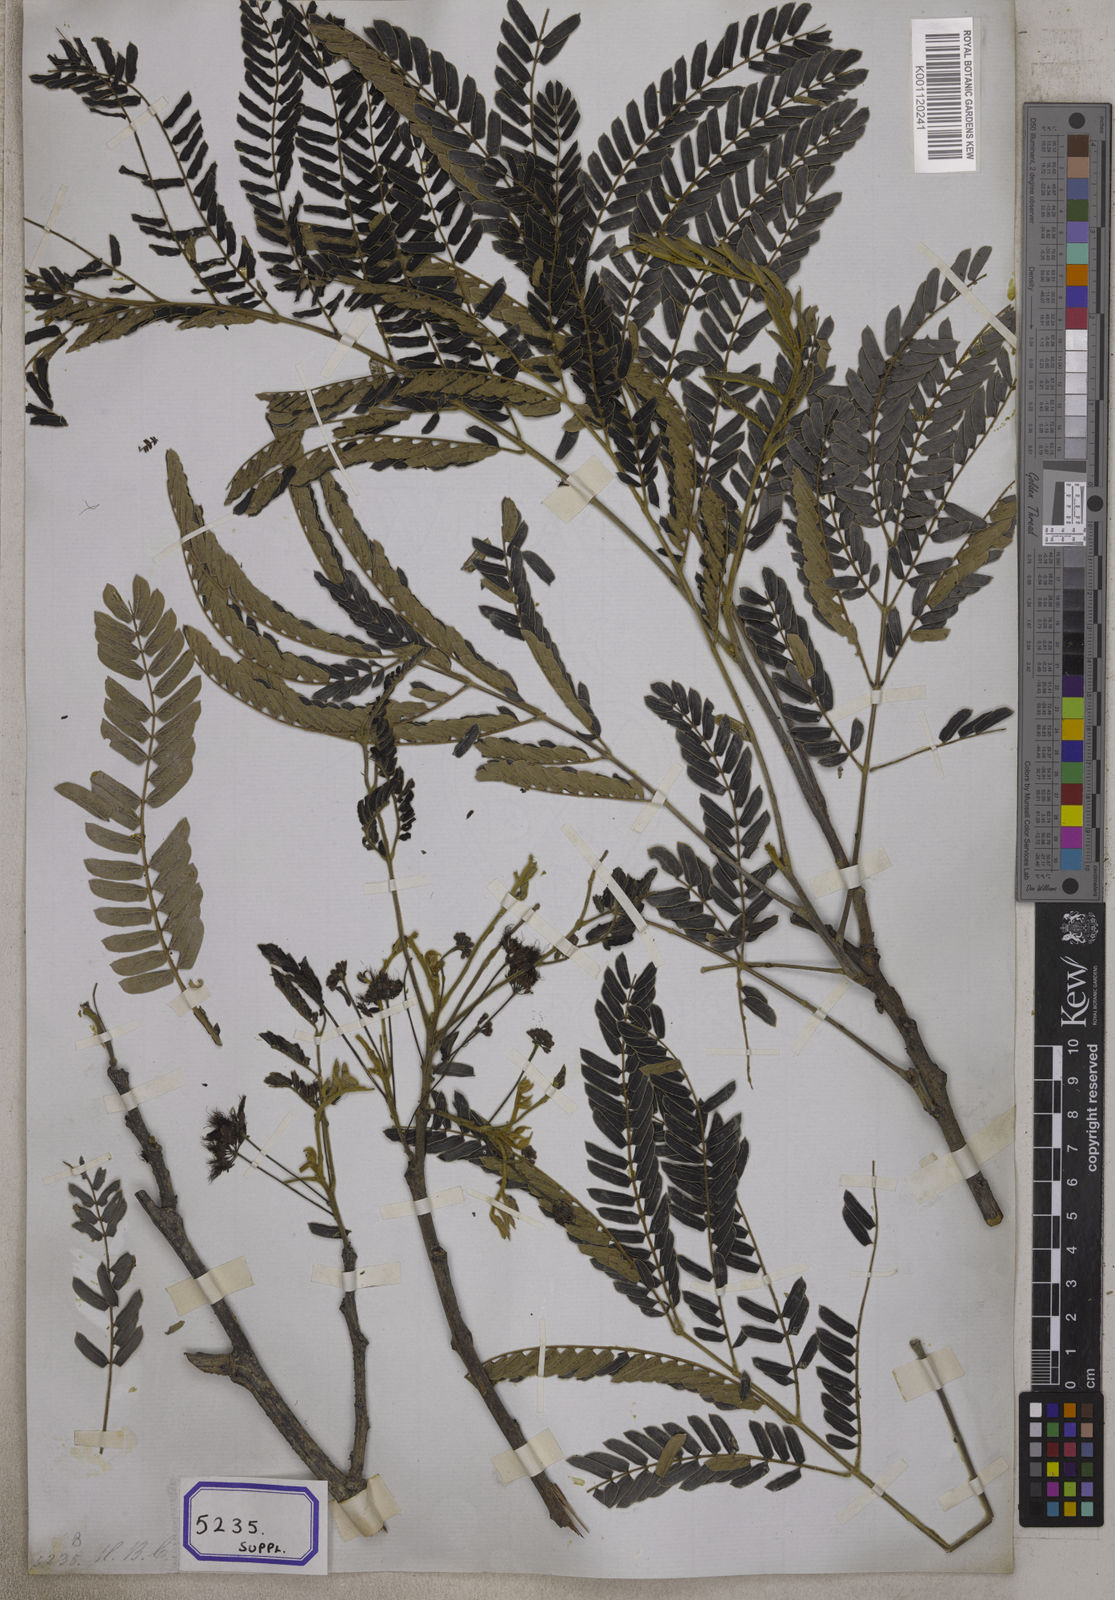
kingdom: Plantae
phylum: Tracheophyta
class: Magnoliopsida
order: Fabales
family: Fabaceae
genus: Albizia
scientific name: Albizia julibrissin
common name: Silktree
